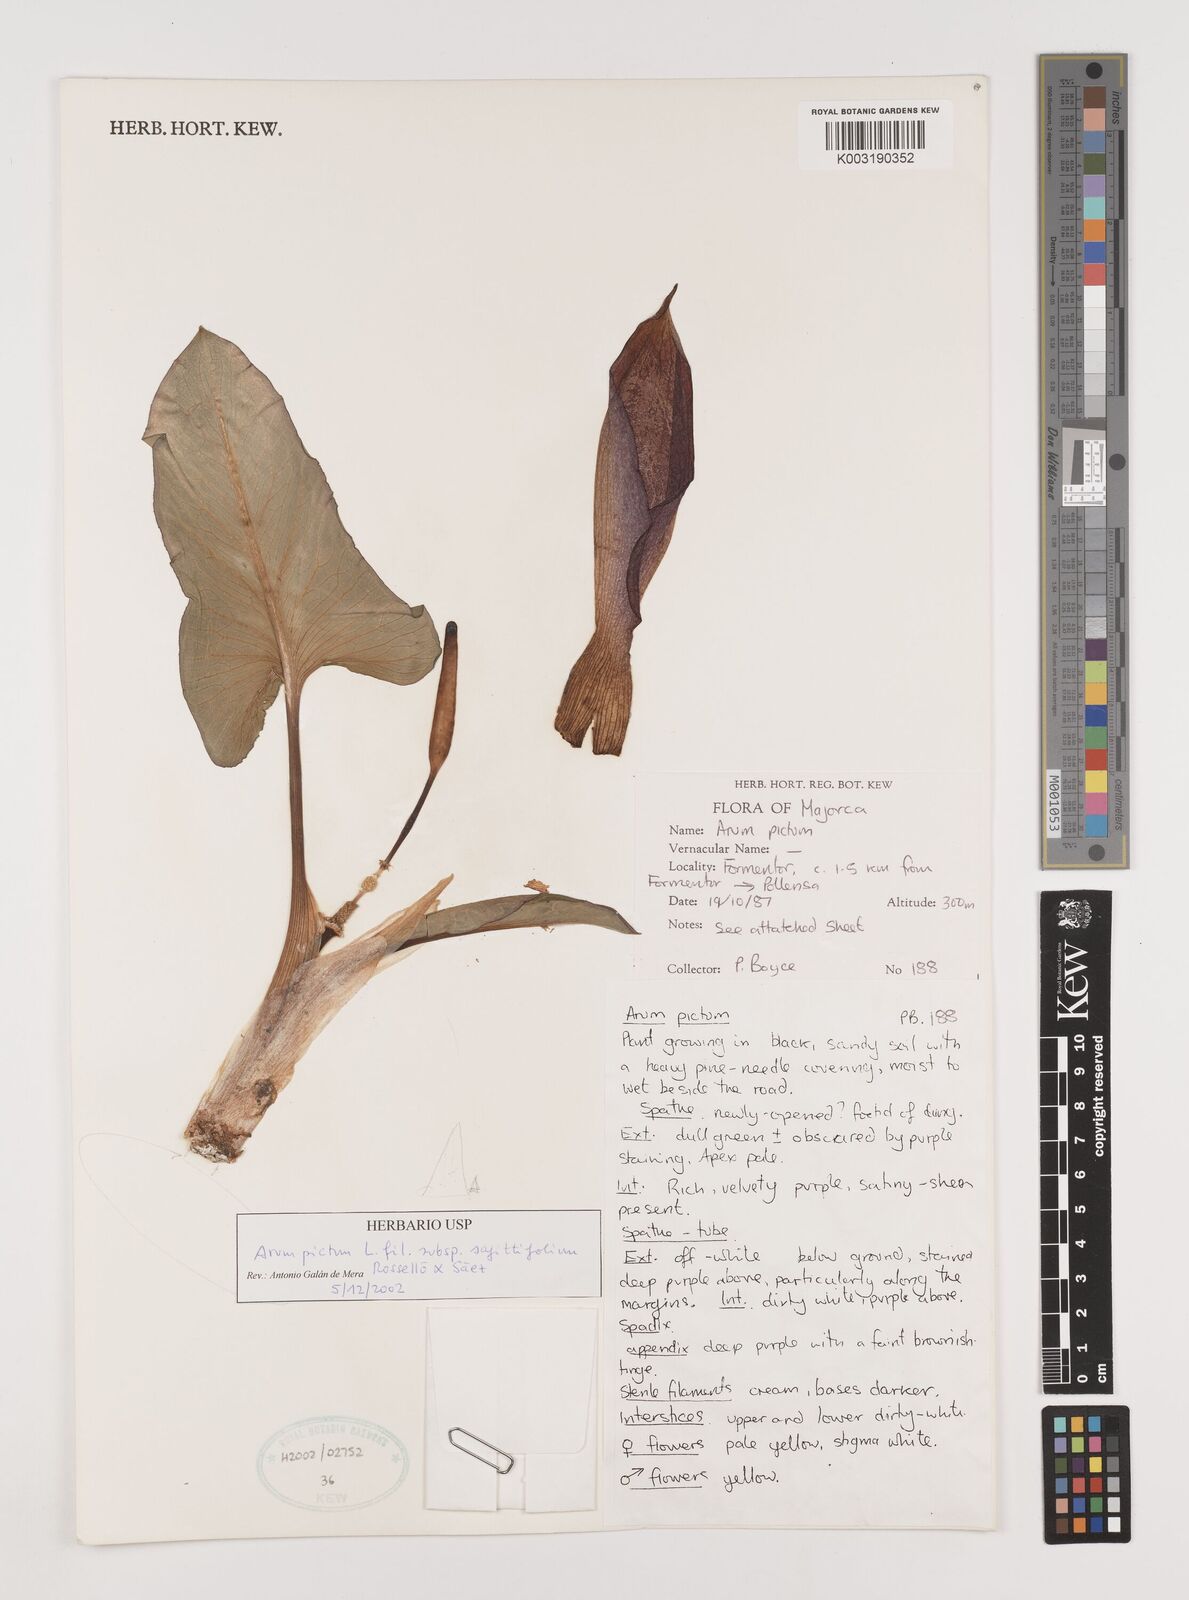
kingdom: Plantae
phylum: Tracheophyta
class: Liliopsida
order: Alismatales
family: Araceae
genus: Arum
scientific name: Arum
